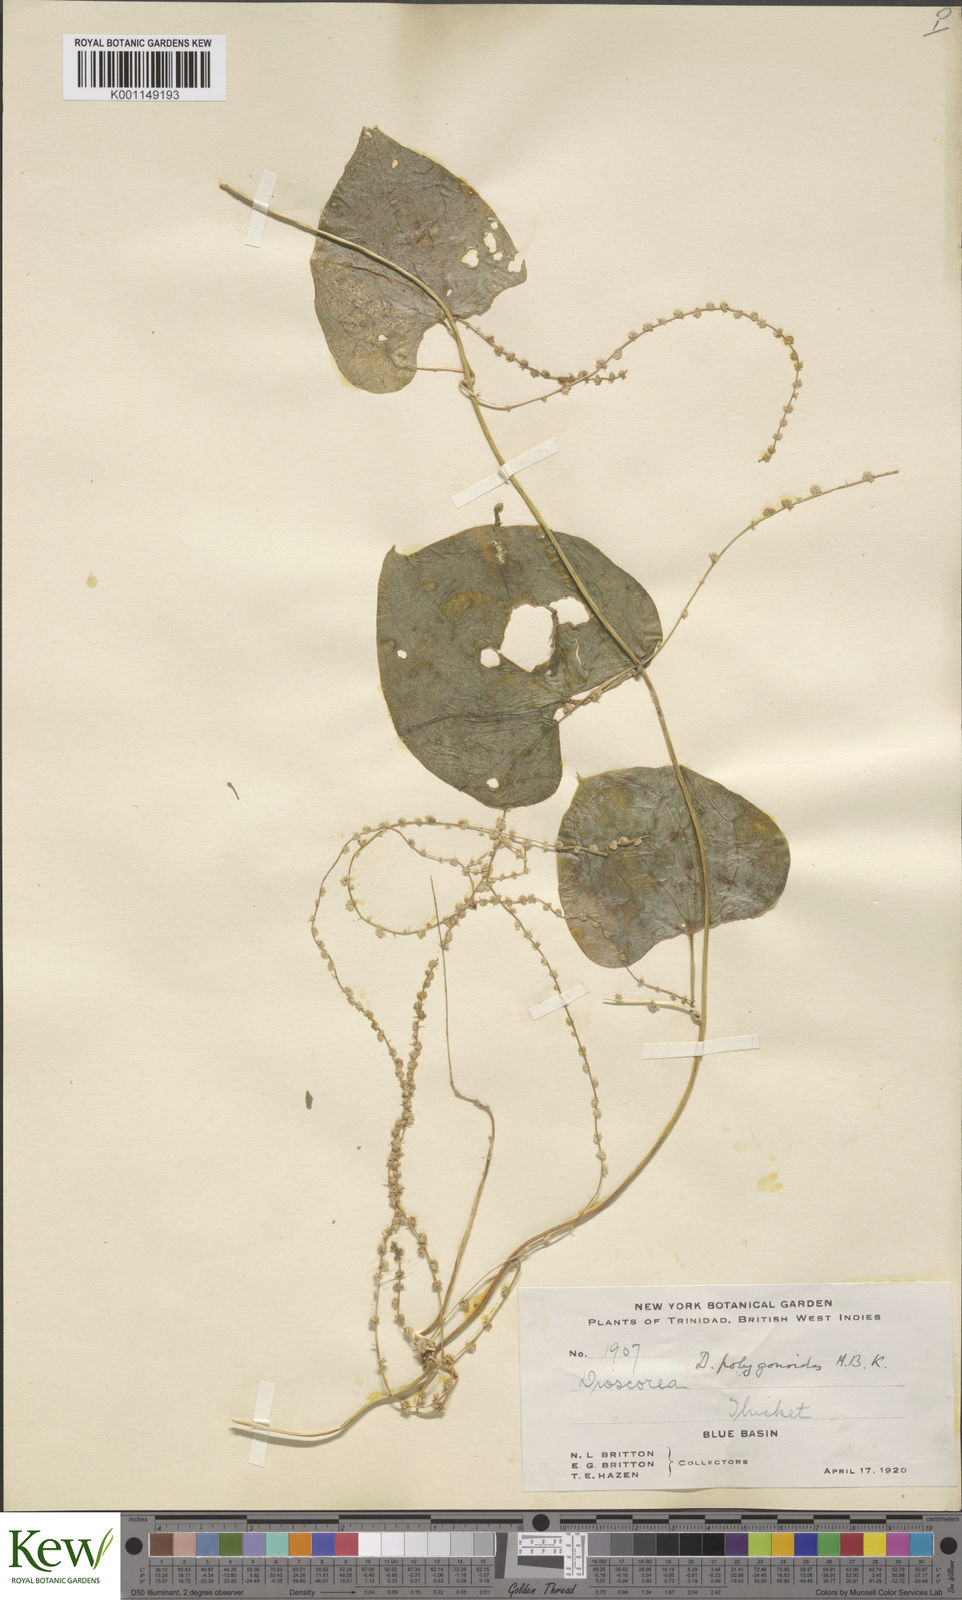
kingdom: Plantae
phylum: Tracheophyta
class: Liliopsida
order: Dioscoreales
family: Dioscoreaceae
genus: Dioscorea
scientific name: Dioscorea polygonoides
